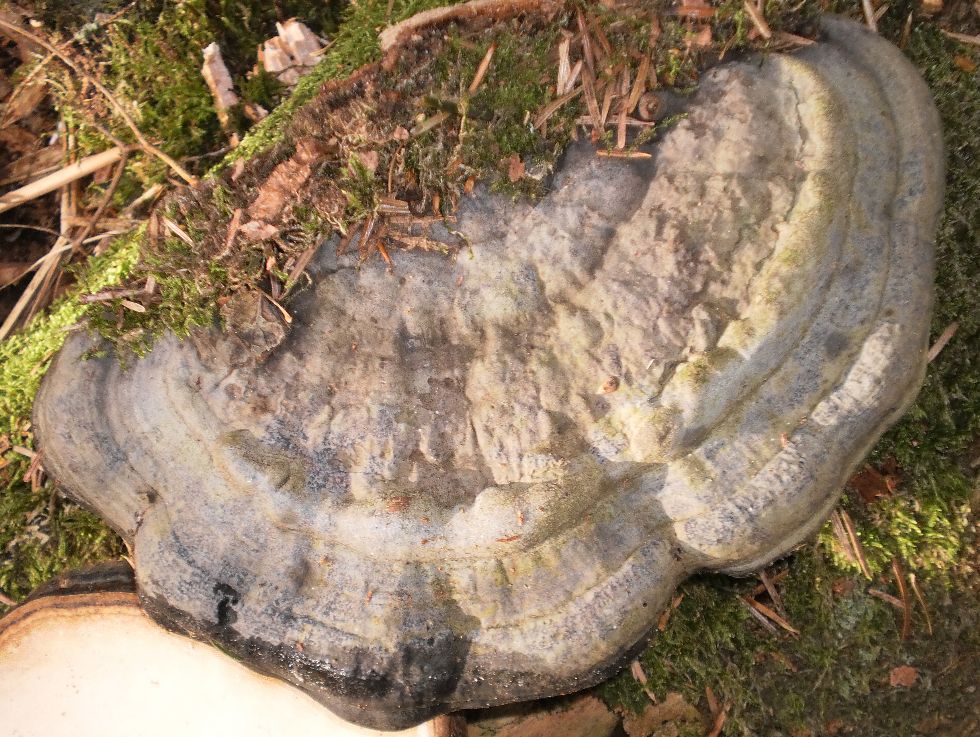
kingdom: Fungi
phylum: Basidiomycota
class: Agaricomycetes
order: Polyporales
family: Fomitopsidaceae
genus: Fomitopsis
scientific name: Fomitopsis pinicola
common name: randbæltet hovporesvamp
